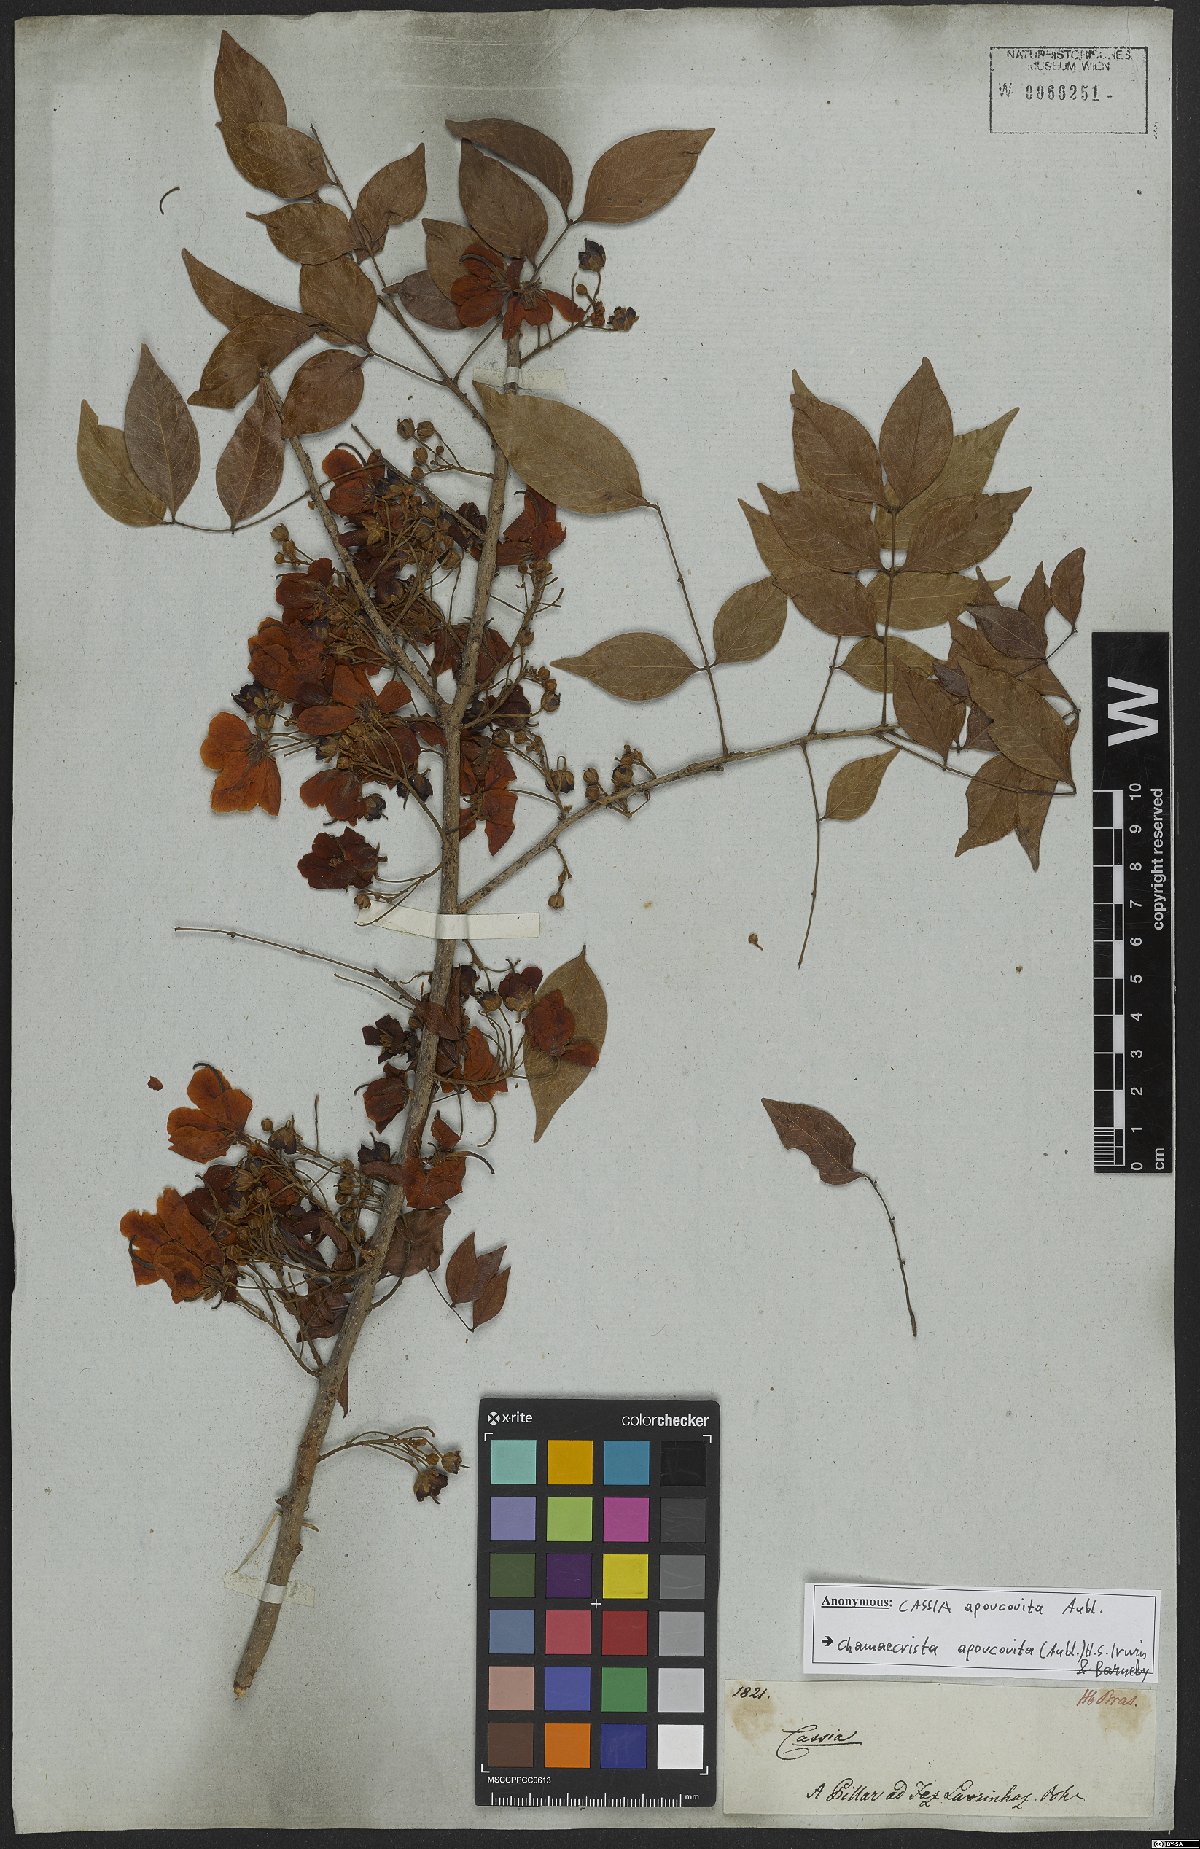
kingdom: Plantae
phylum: Tracheophyta
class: Magnoliopsida
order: Fabales
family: Fabaceae
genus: Chamaecrista
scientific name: Chamaecrista apoucouita
